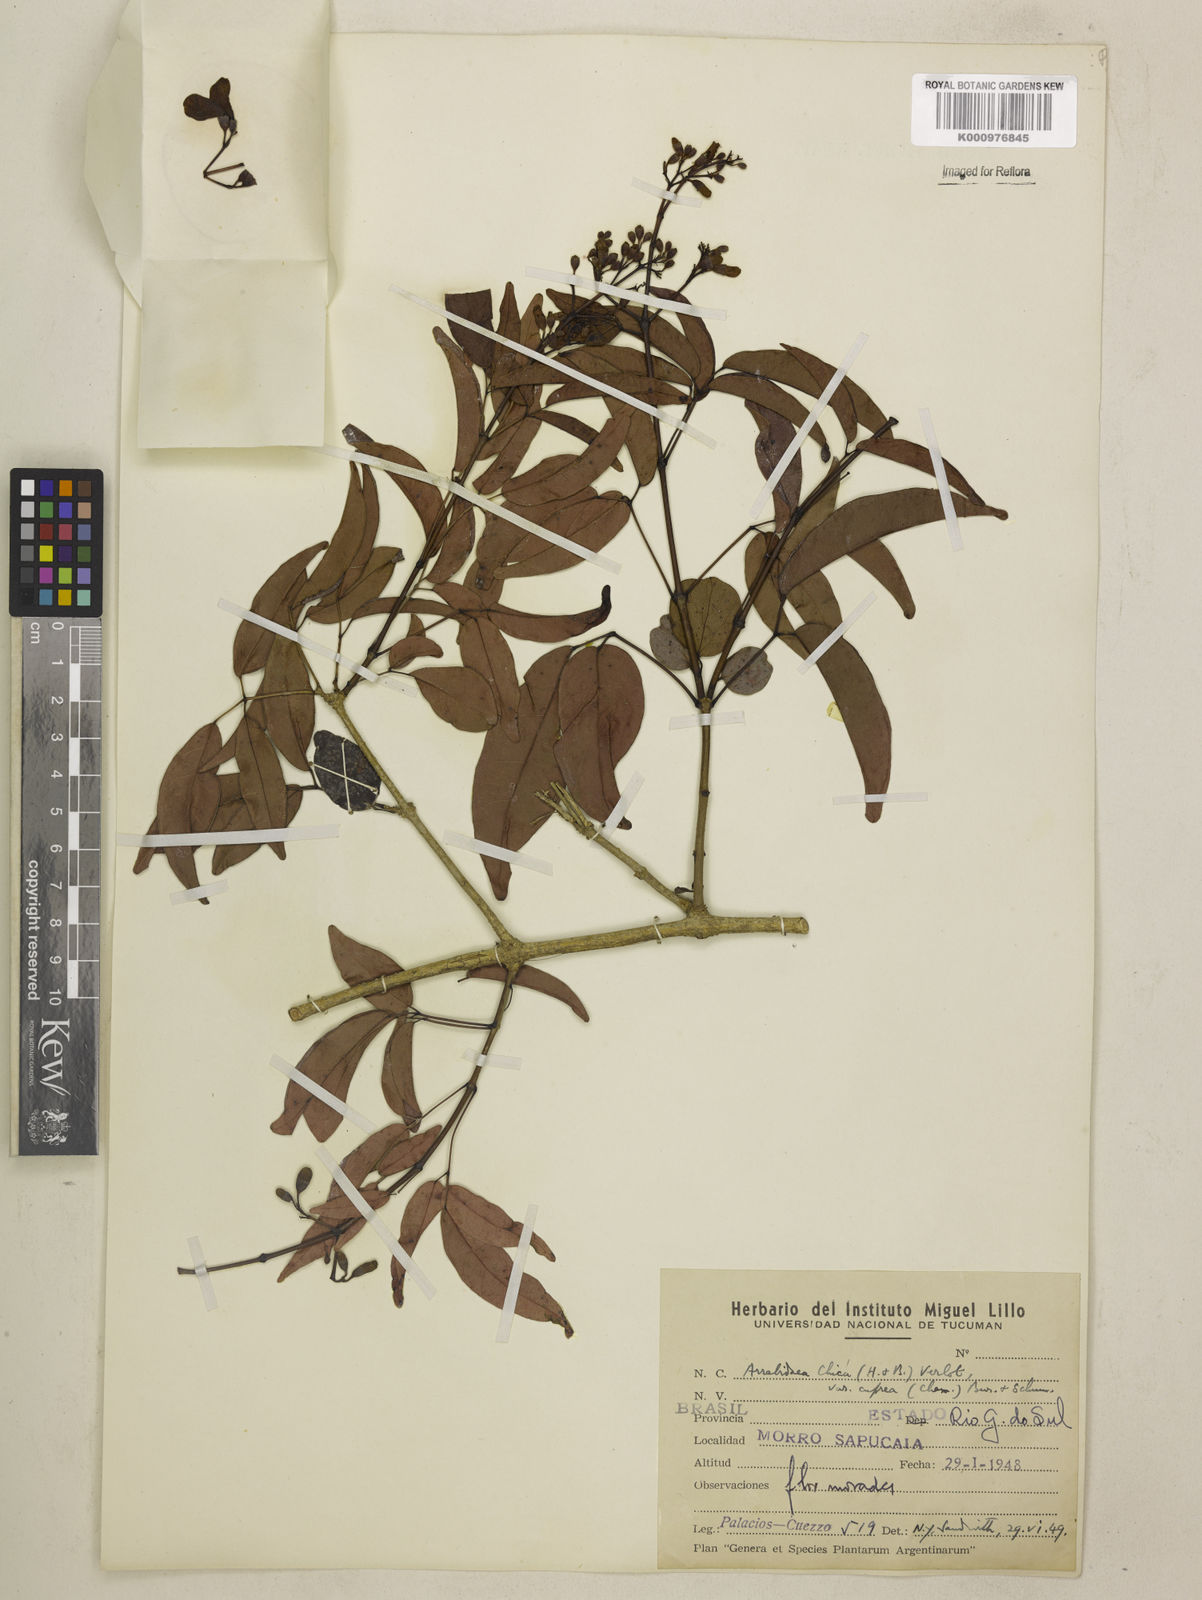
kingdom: Plantae
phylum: Tracheophyta
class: Magnoliopsida
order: Lamiales
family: Bignoniaceae
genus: Fridericia
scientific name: Fridericia chica
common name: Cricketvine
